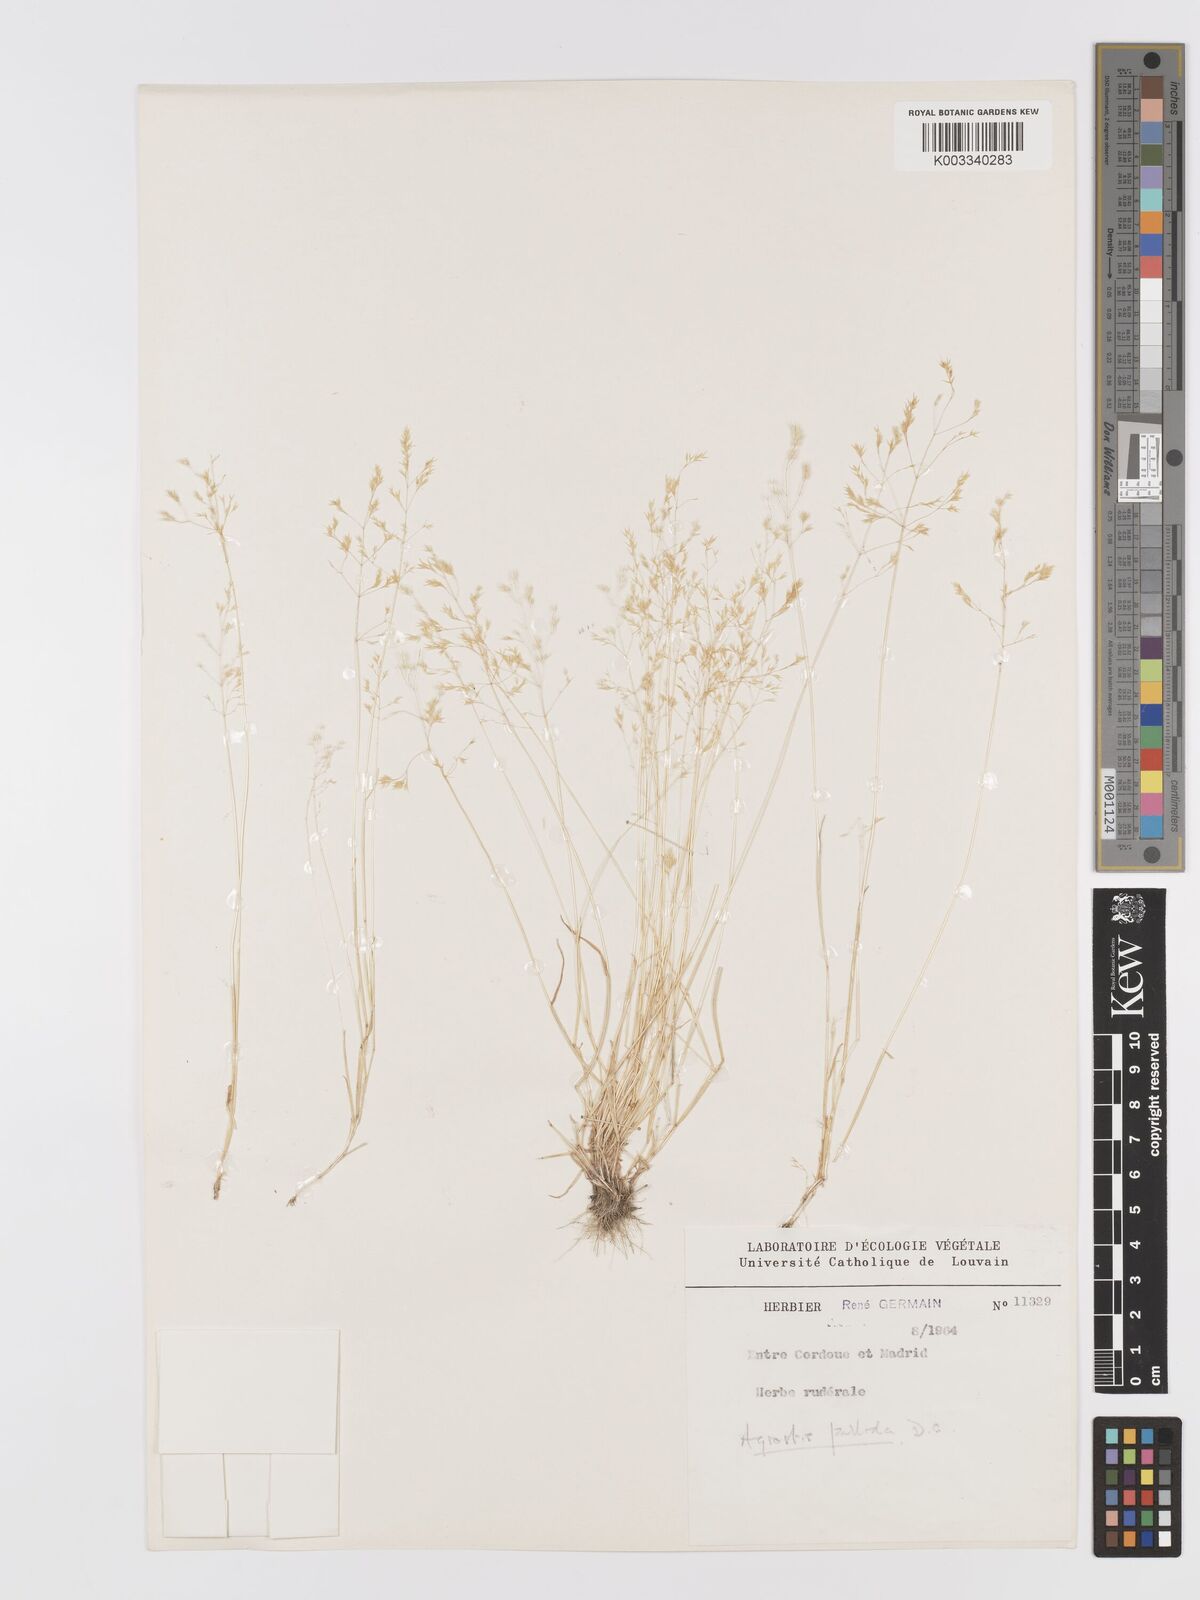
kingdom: Plantae
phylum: Tracheophyta
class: Liliopsida
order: Poales
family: Poaceae
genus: Agrostis
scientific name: Agrostis pourretii
